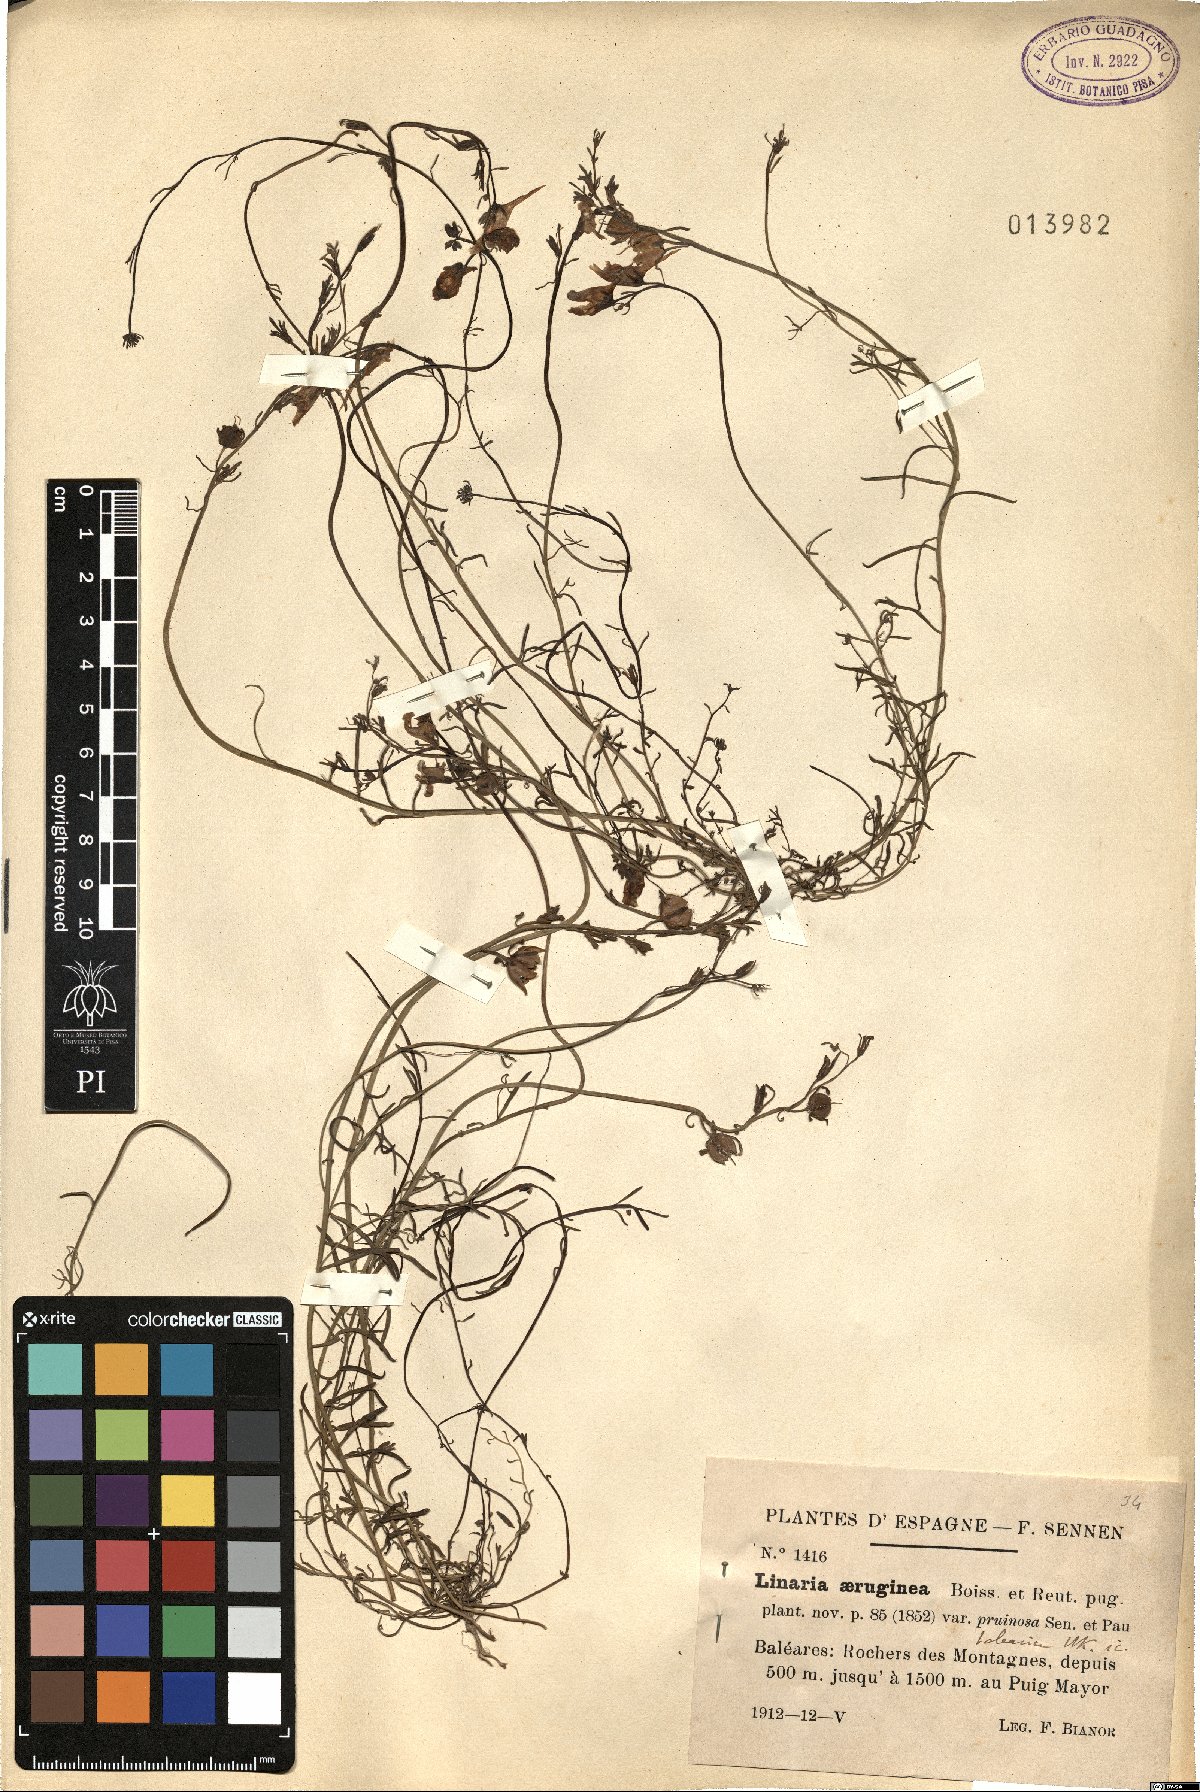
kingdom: Plantae
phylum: Tracheophyta
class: Magnoliopsida
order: Lamiales
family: Plantaginaceae
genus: Linaria
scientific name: Linaria aeruginea
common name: Roadside toadflax
